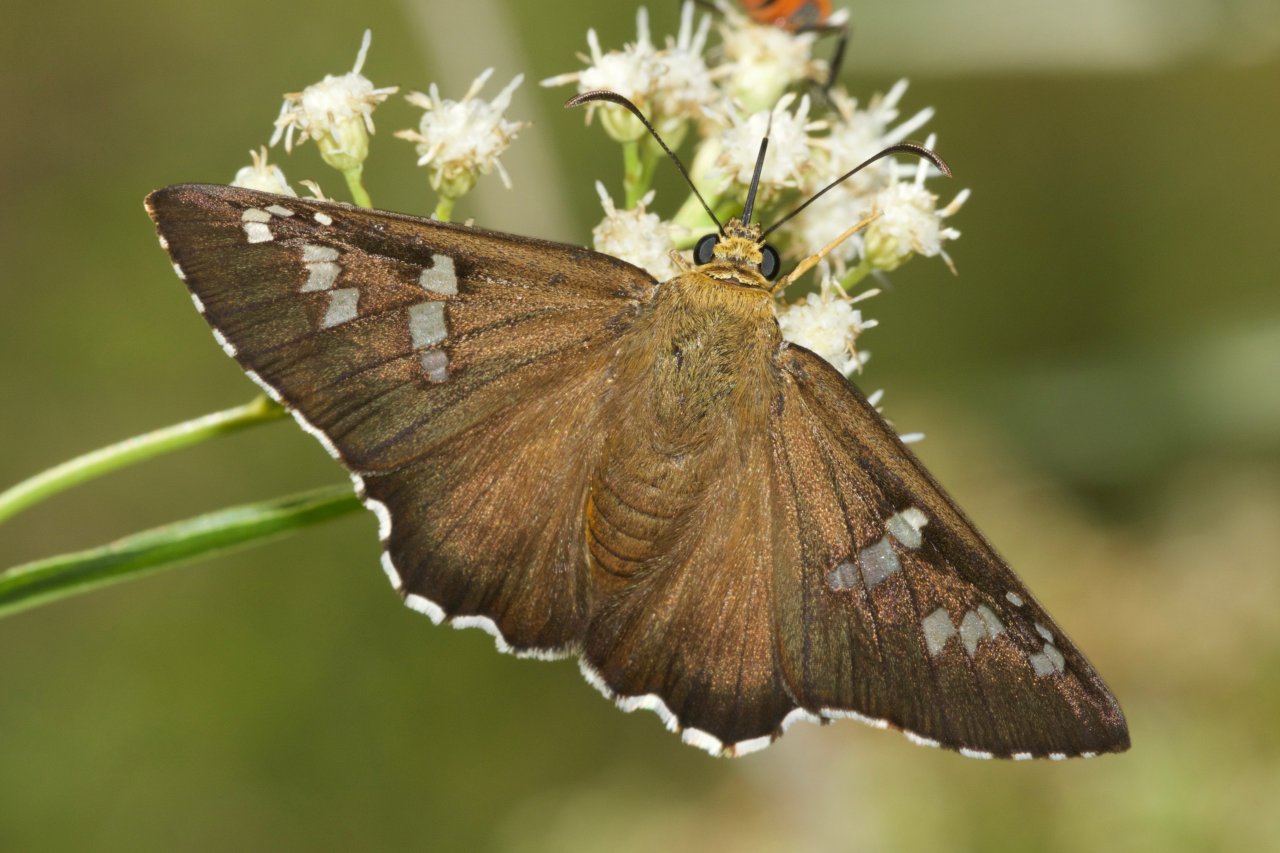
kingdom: Animalia
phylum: Arthropoda
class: Insecta
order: Lepidoptera
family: Hesperiidae
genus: Pyrrhopyge
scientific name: Pyrrhopyge araxes
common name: Dull Firetip
